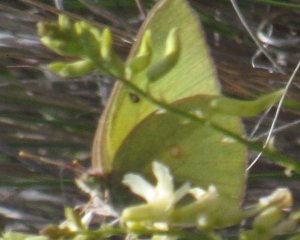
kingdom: Animalia
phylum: Arthropoda
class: Insecta
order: Lepidoptera
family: Pieridae
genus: Colias
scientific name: Colias alexandra
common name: Queen Alexandra's Sulphur
